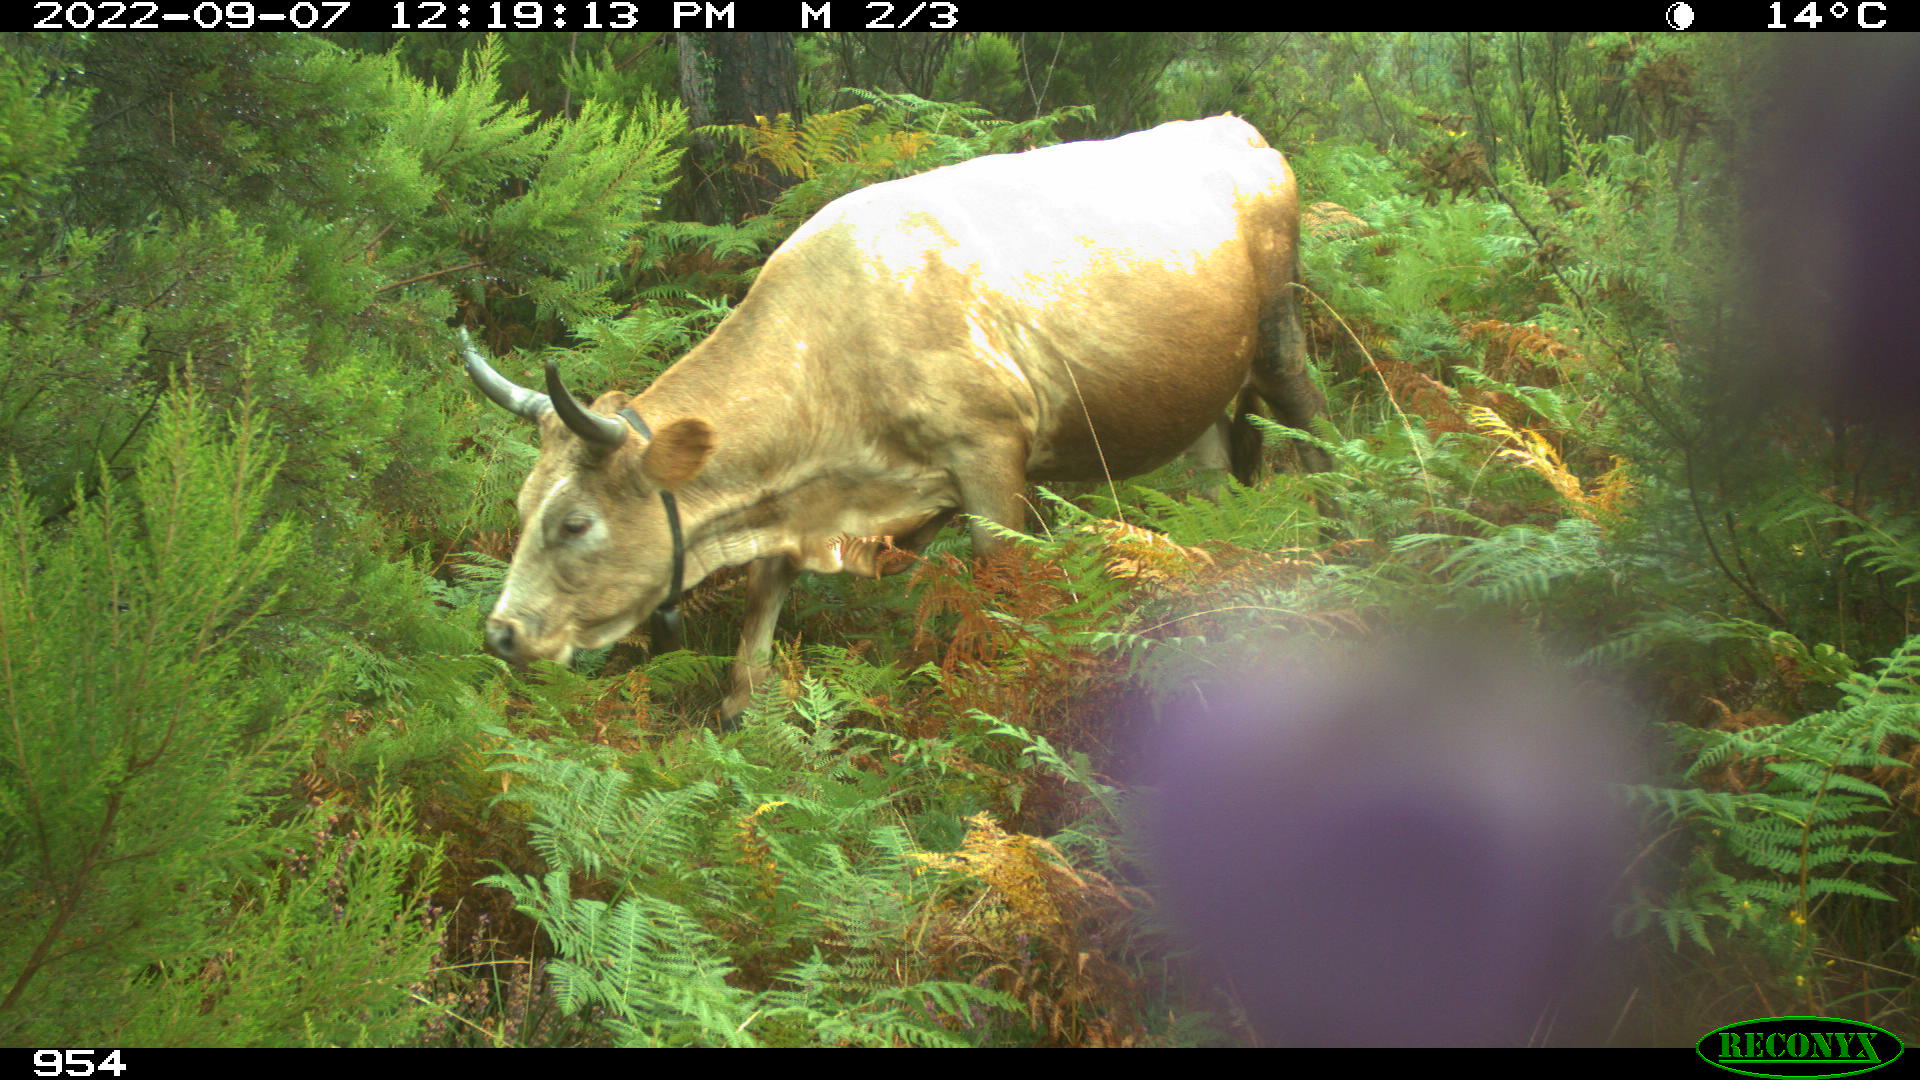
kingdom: Animalia
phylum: Chordata
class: Mammalia
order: Artiodactyla
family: Bovidae
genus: Bos
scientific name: Bos taurus
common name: Domesticated cattle
